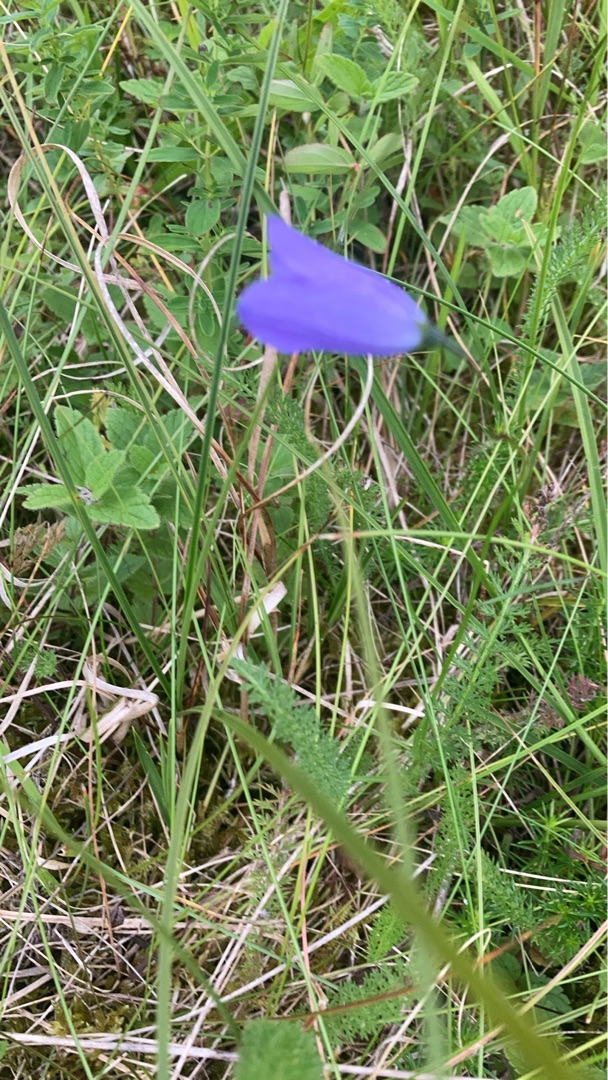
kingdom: Plantae
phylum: Tracheophyta
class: Magnoliopsida
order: Asterales
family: Campanulaceae
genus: Campanula
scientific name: Campanula rotundifolia
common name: Liden klokke
